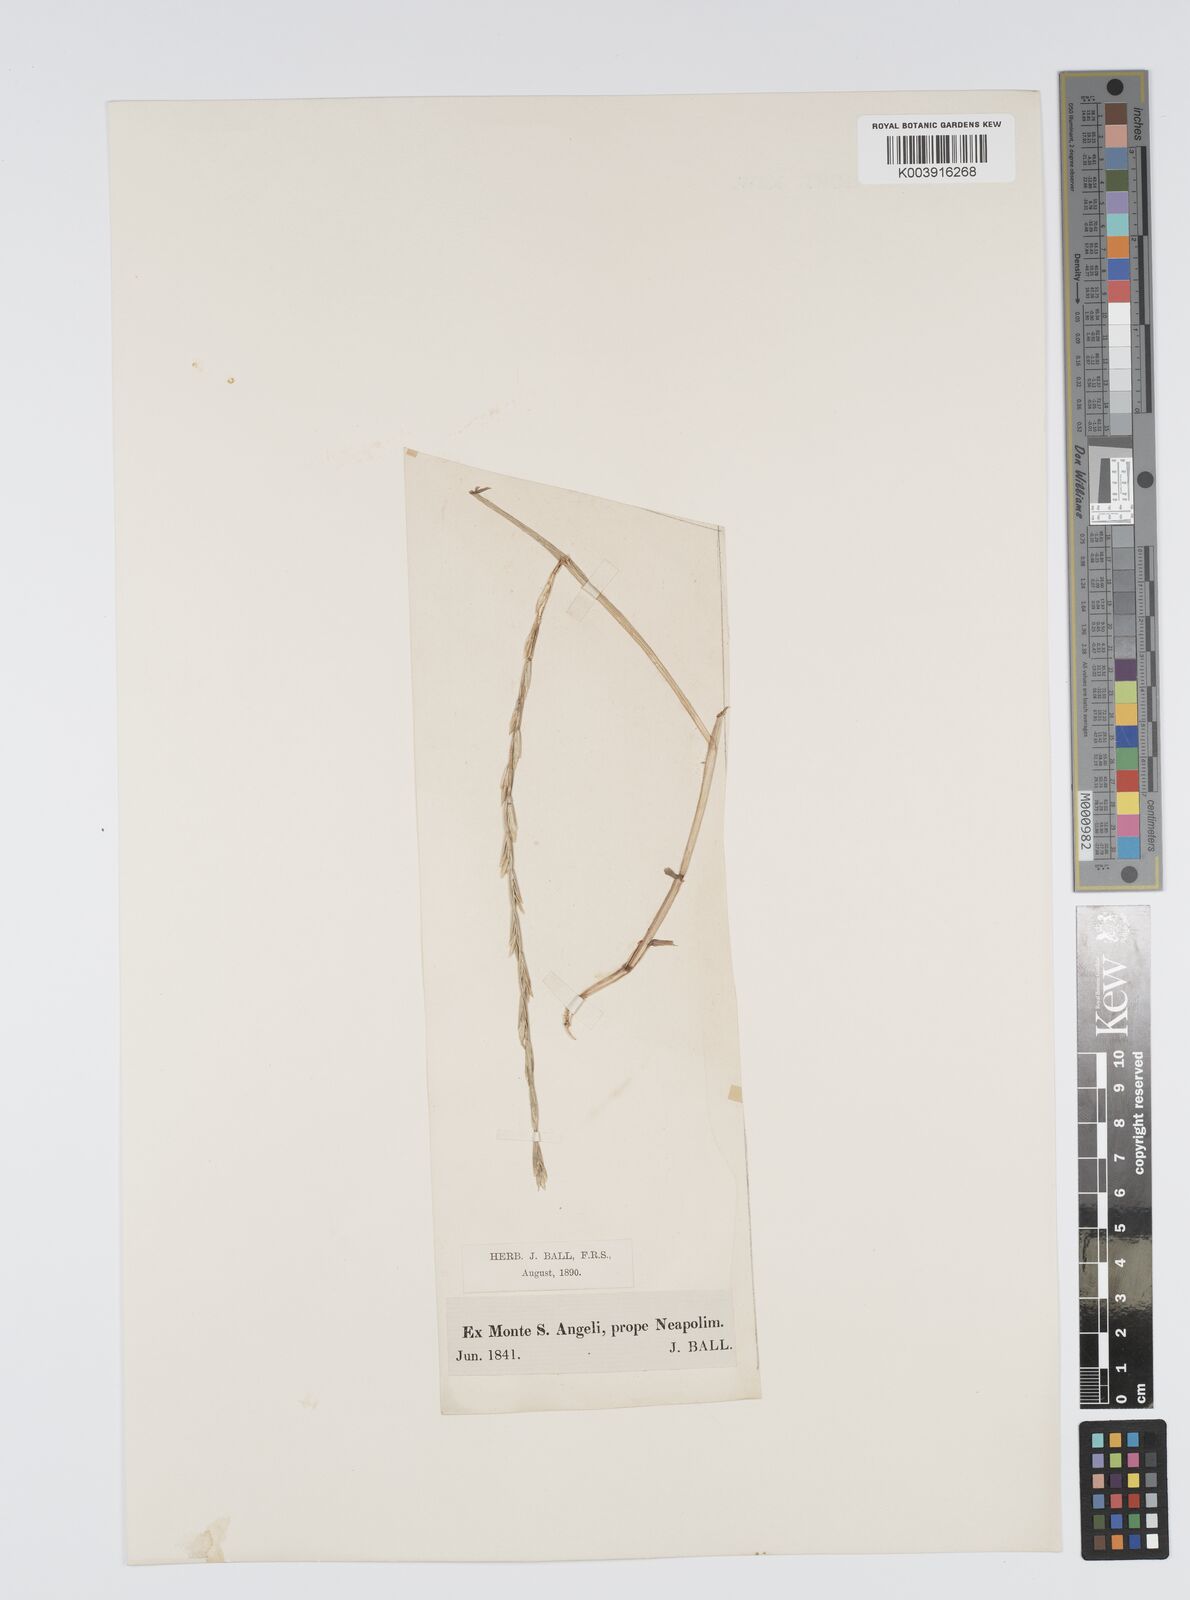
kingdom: Plantae
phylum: Tracheophyta
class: Liliopsida
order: Poales
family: Poaceae
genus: Lolium
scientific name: Lolium rigidum
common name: Wimmera ryegrass
